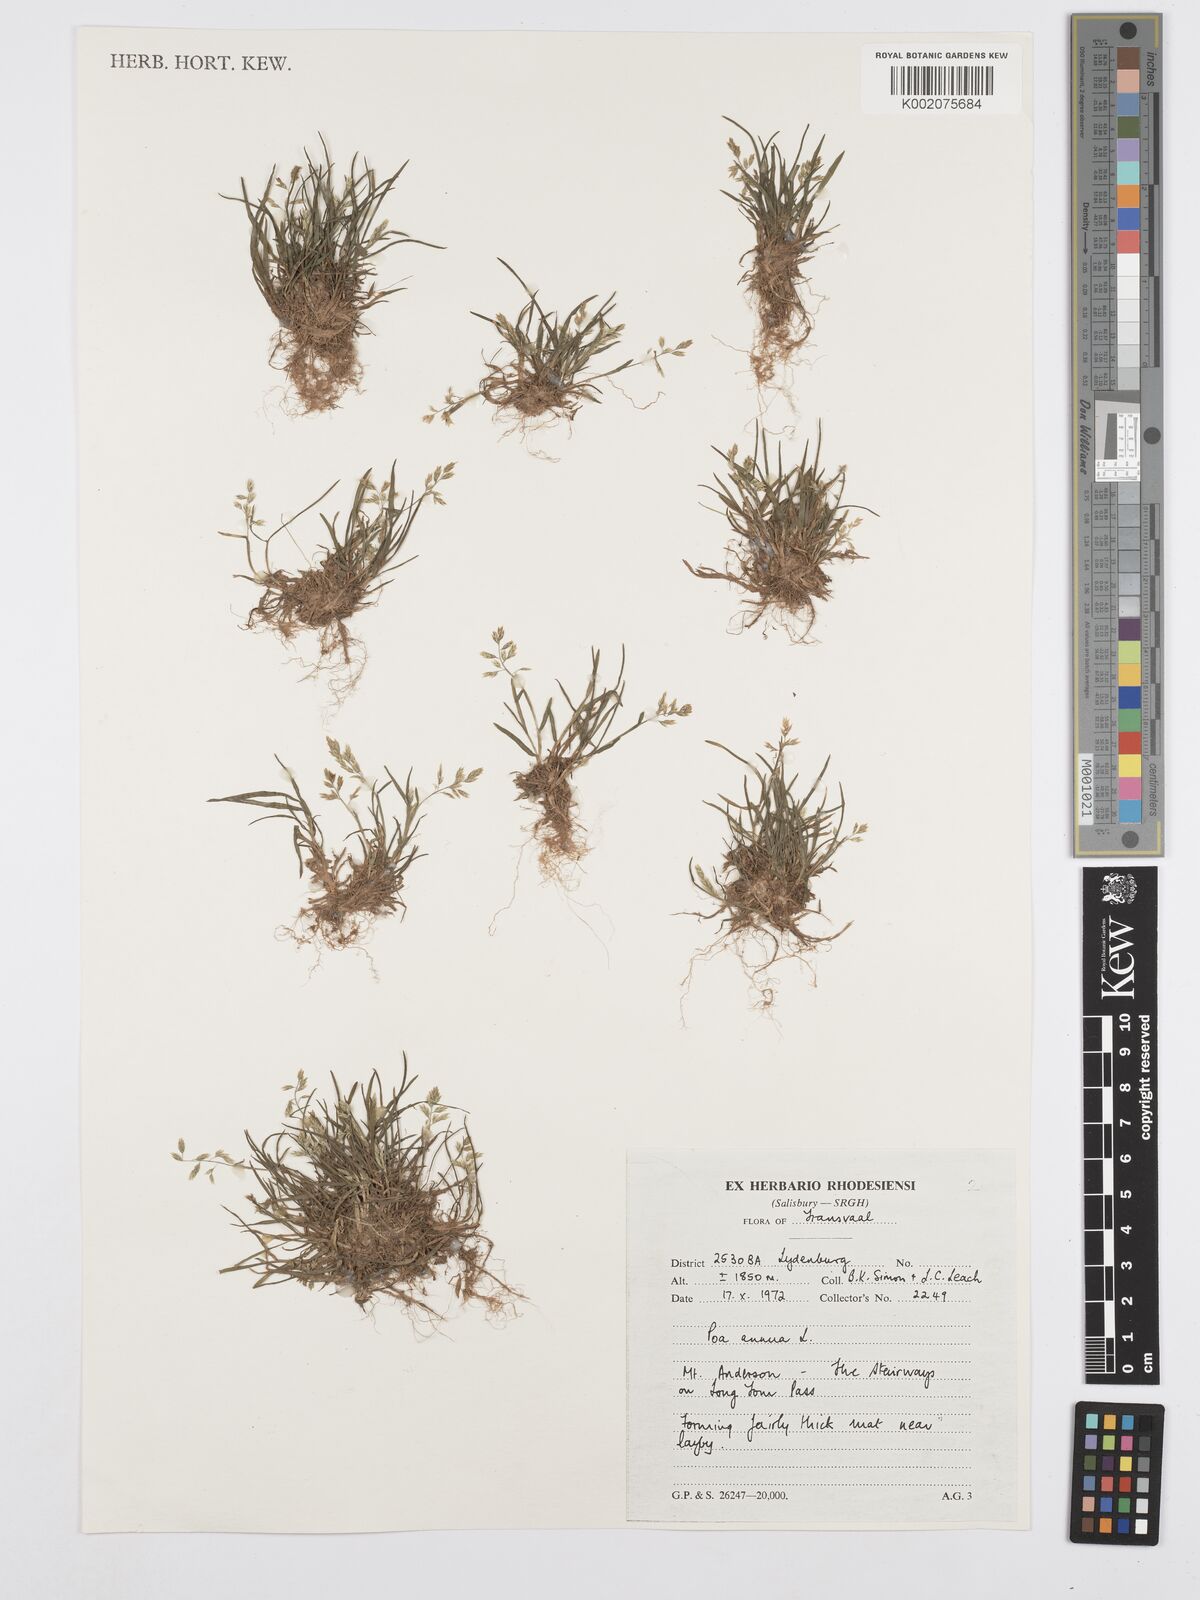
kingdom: Plantae
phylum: Tracheophyta
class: Liliopsida
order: Poales
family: Poaceae
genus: Poa
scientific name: Poa annua
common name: Annual bluegrass
